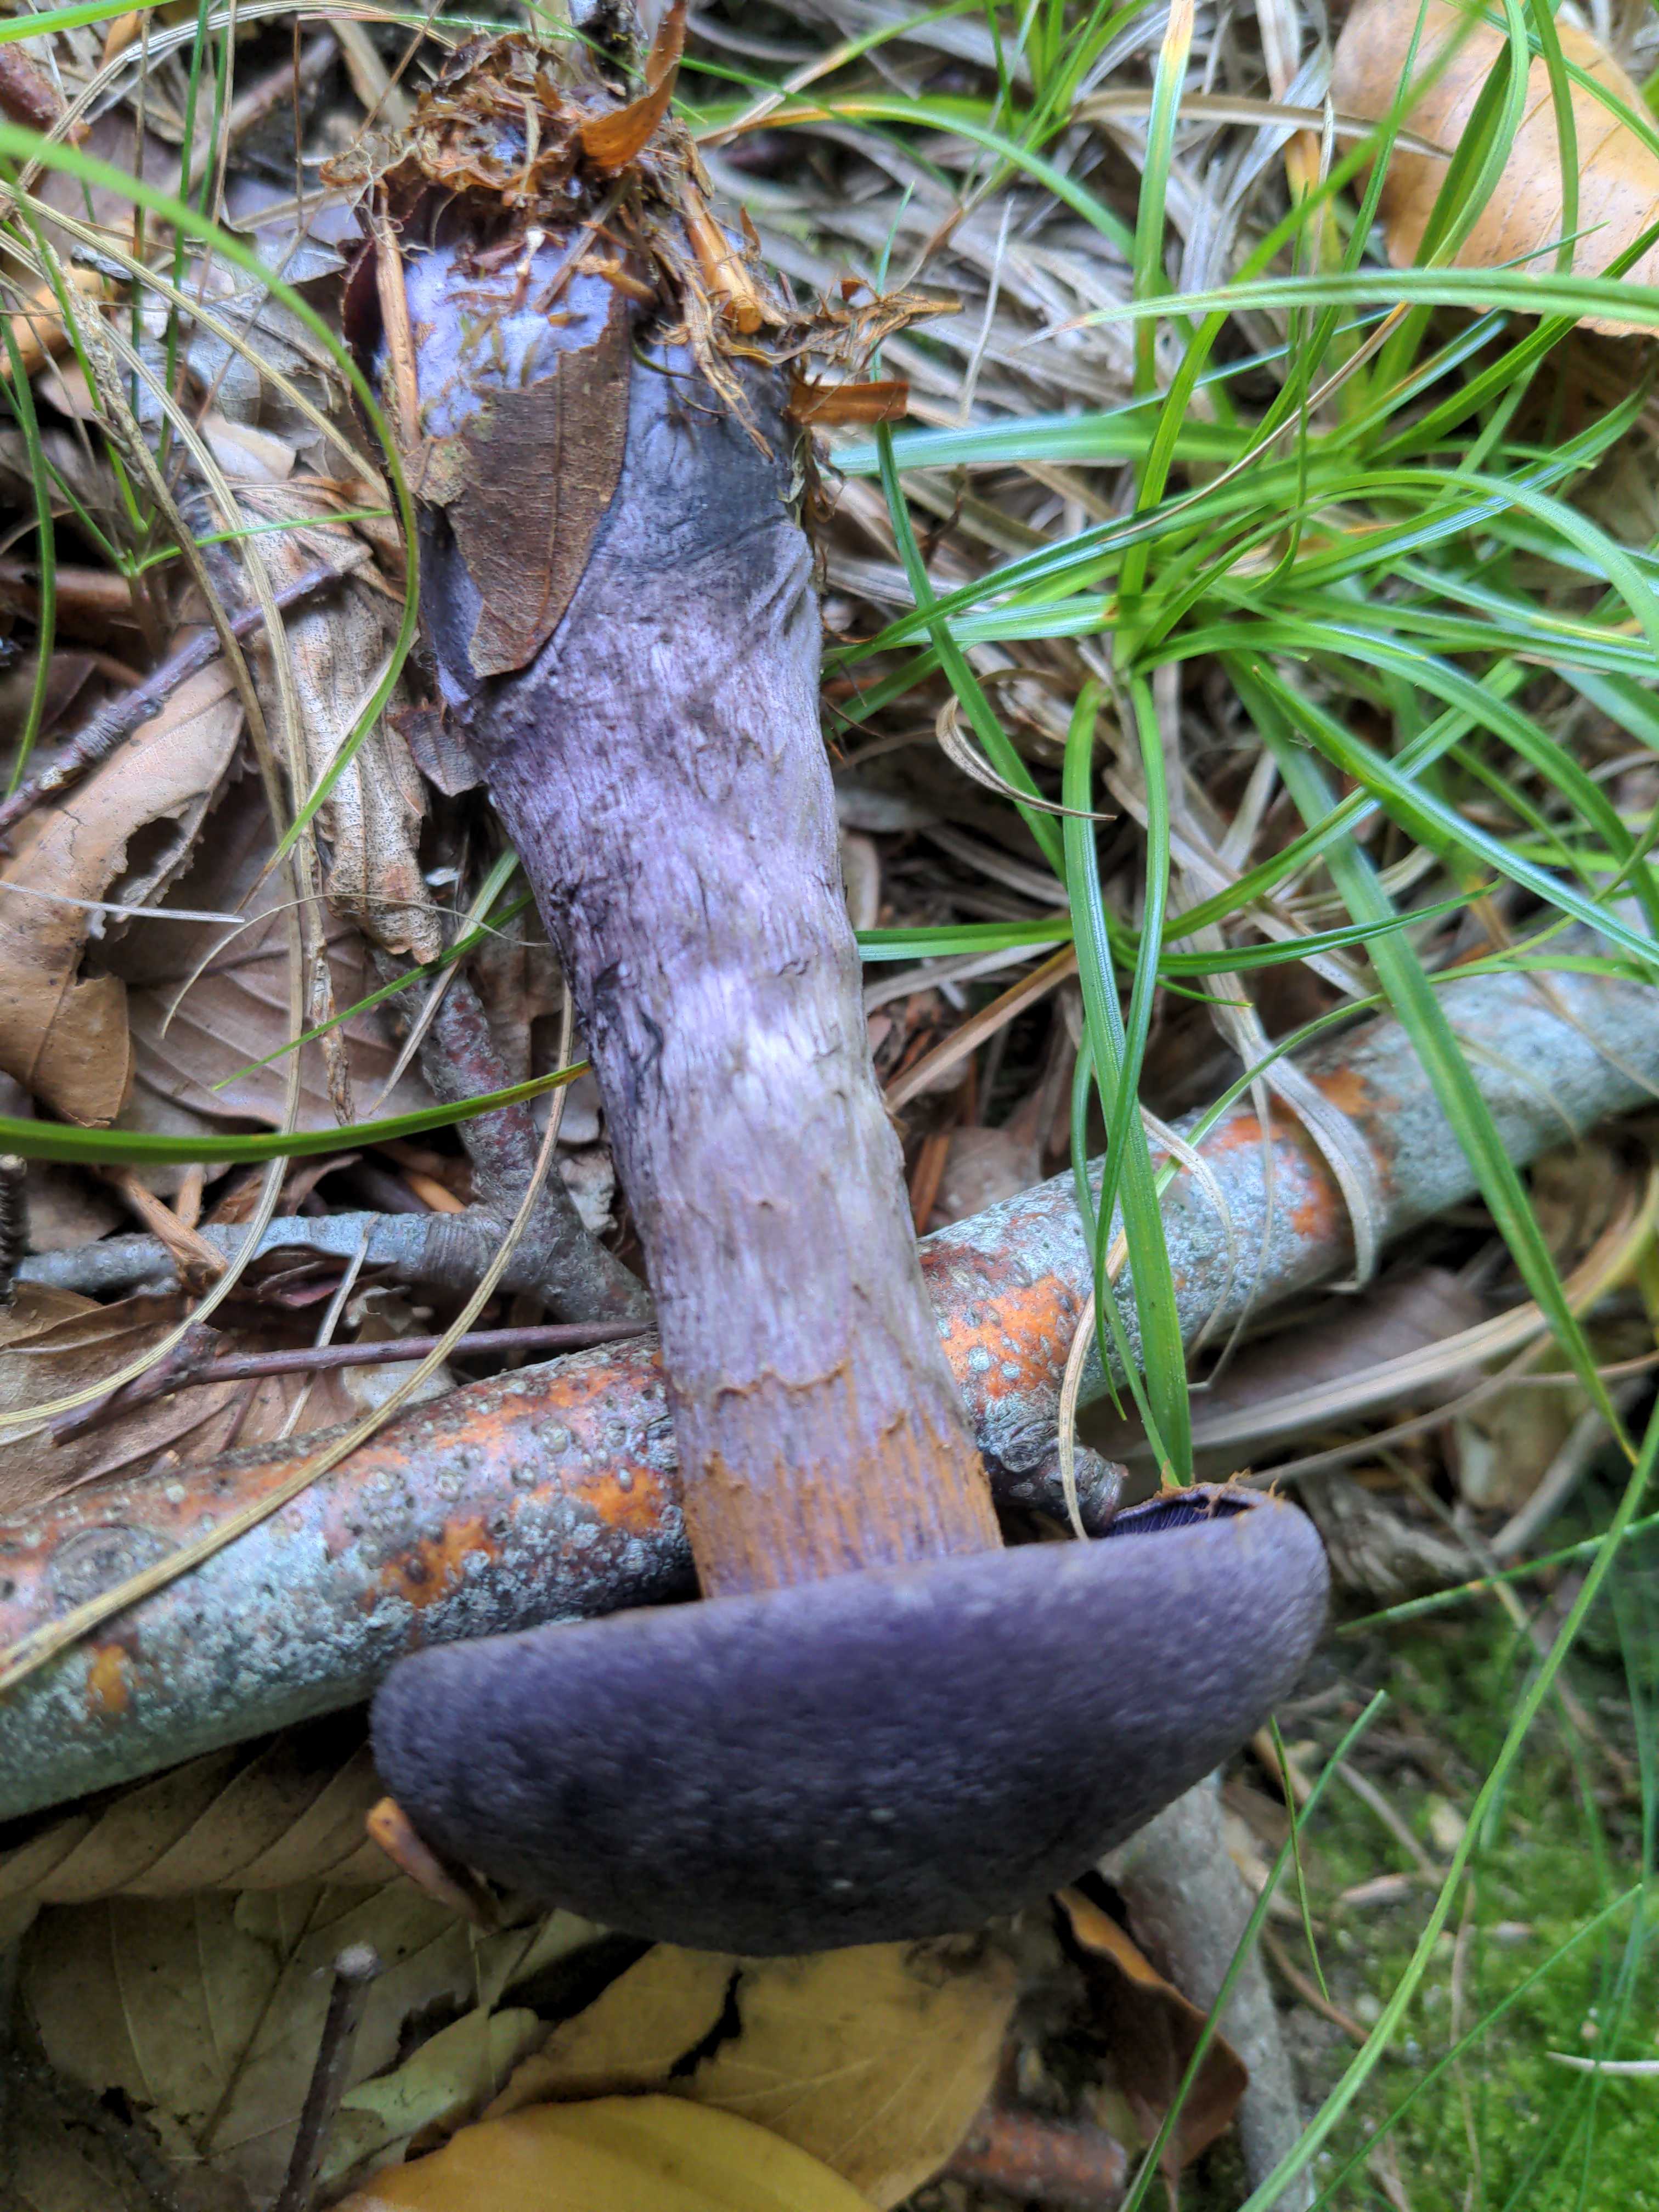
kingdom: Fungi
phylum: Basidiomycota
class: Agaricomycetes
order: Agaricales
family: Cortinariaceae
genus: Cortinarius
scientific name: Cortinarius violaceus
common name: mørkviolet slørhat
